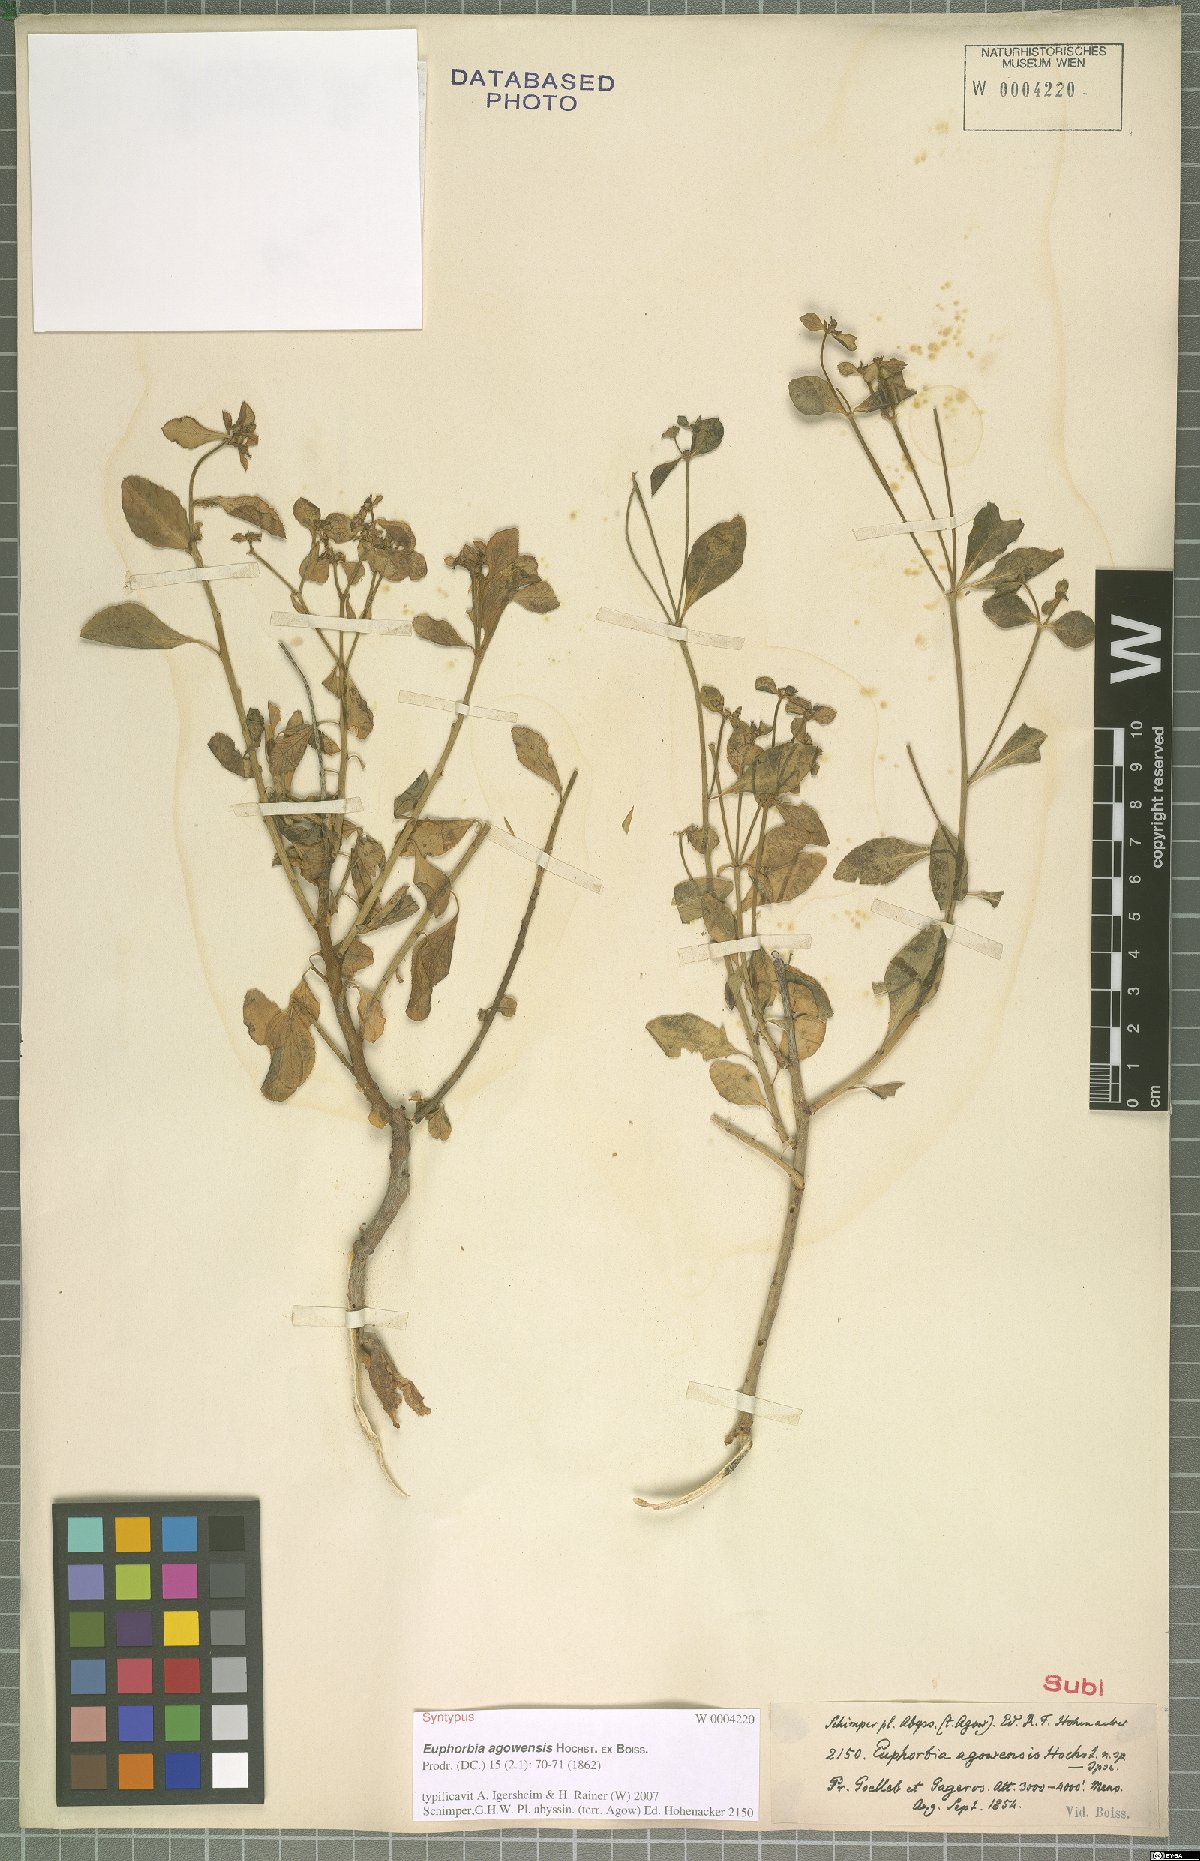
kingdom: Plantae
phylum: Tracheophyta
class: Magnoliopsida
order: Malpighiales
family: Euphorbiaceae
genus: Euphorbia
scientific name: Euphorbia agowensis
